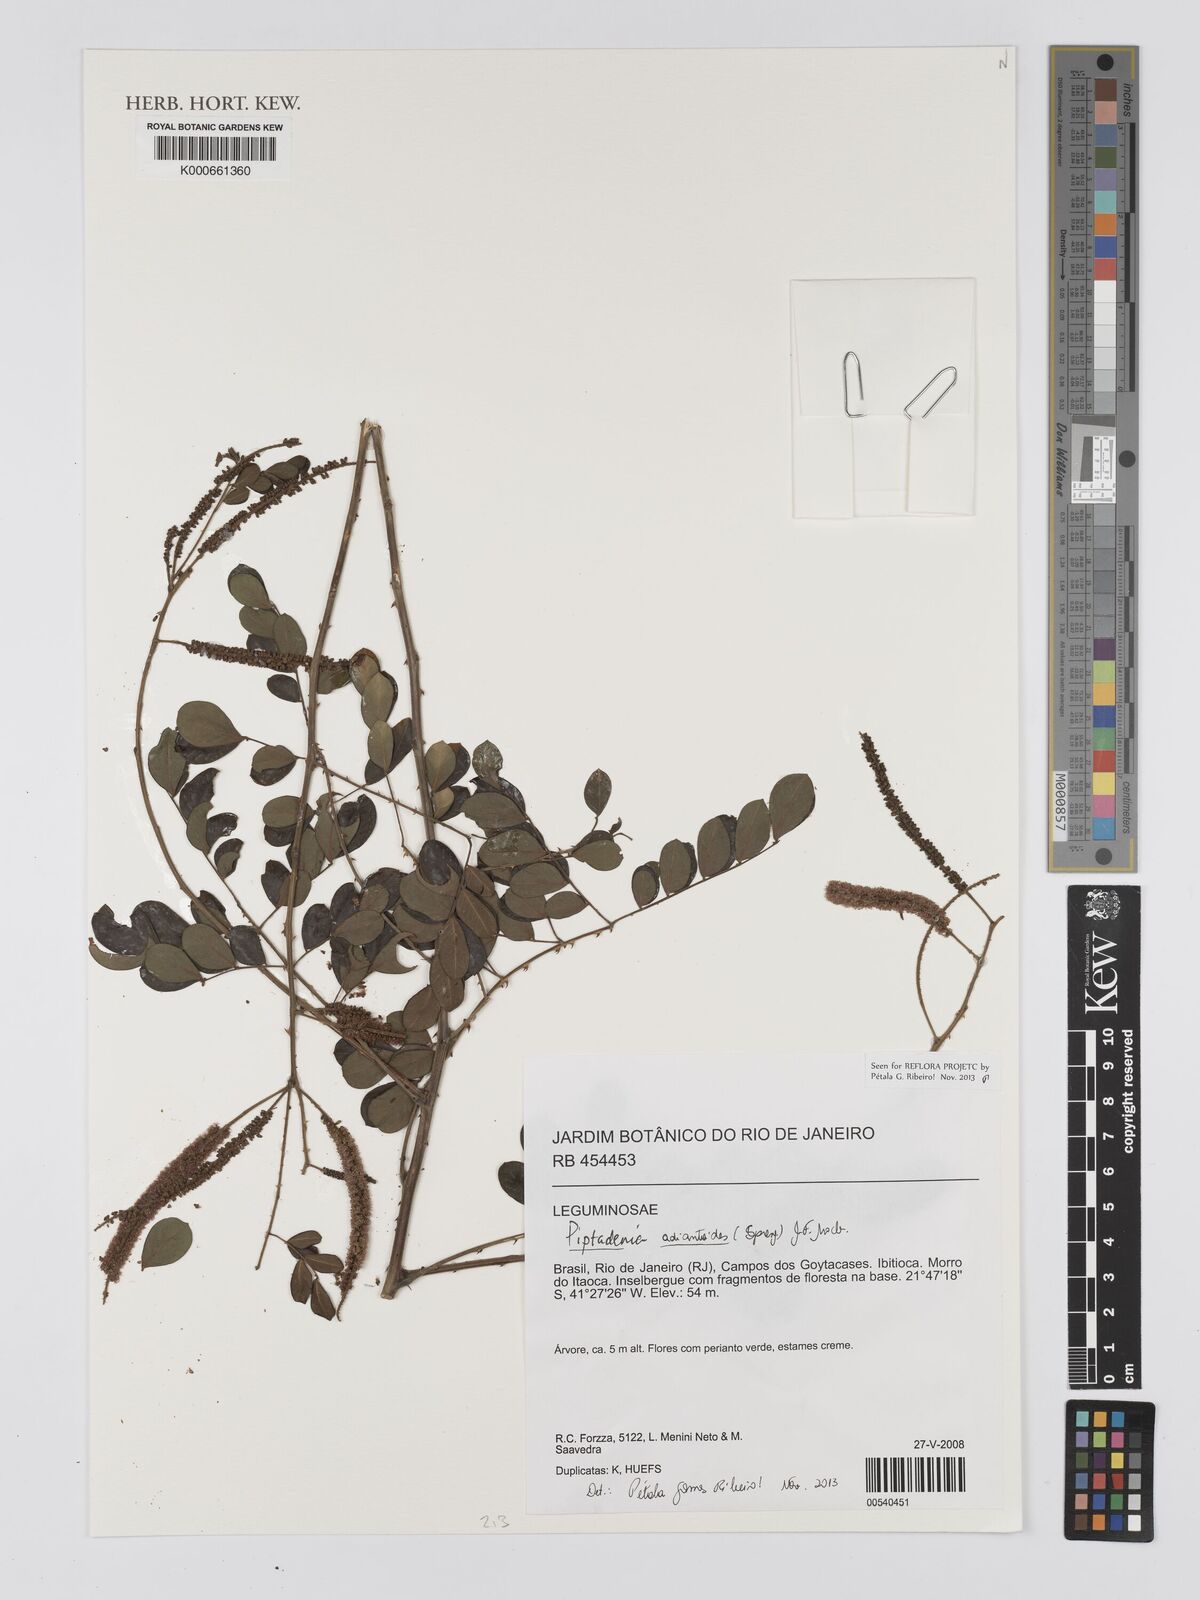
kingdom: Plantae
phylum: Tracheophyta
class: Magnoliopsida
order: Fabales
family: Fabaceae
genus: Piptadenia
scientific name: Piptadenia
